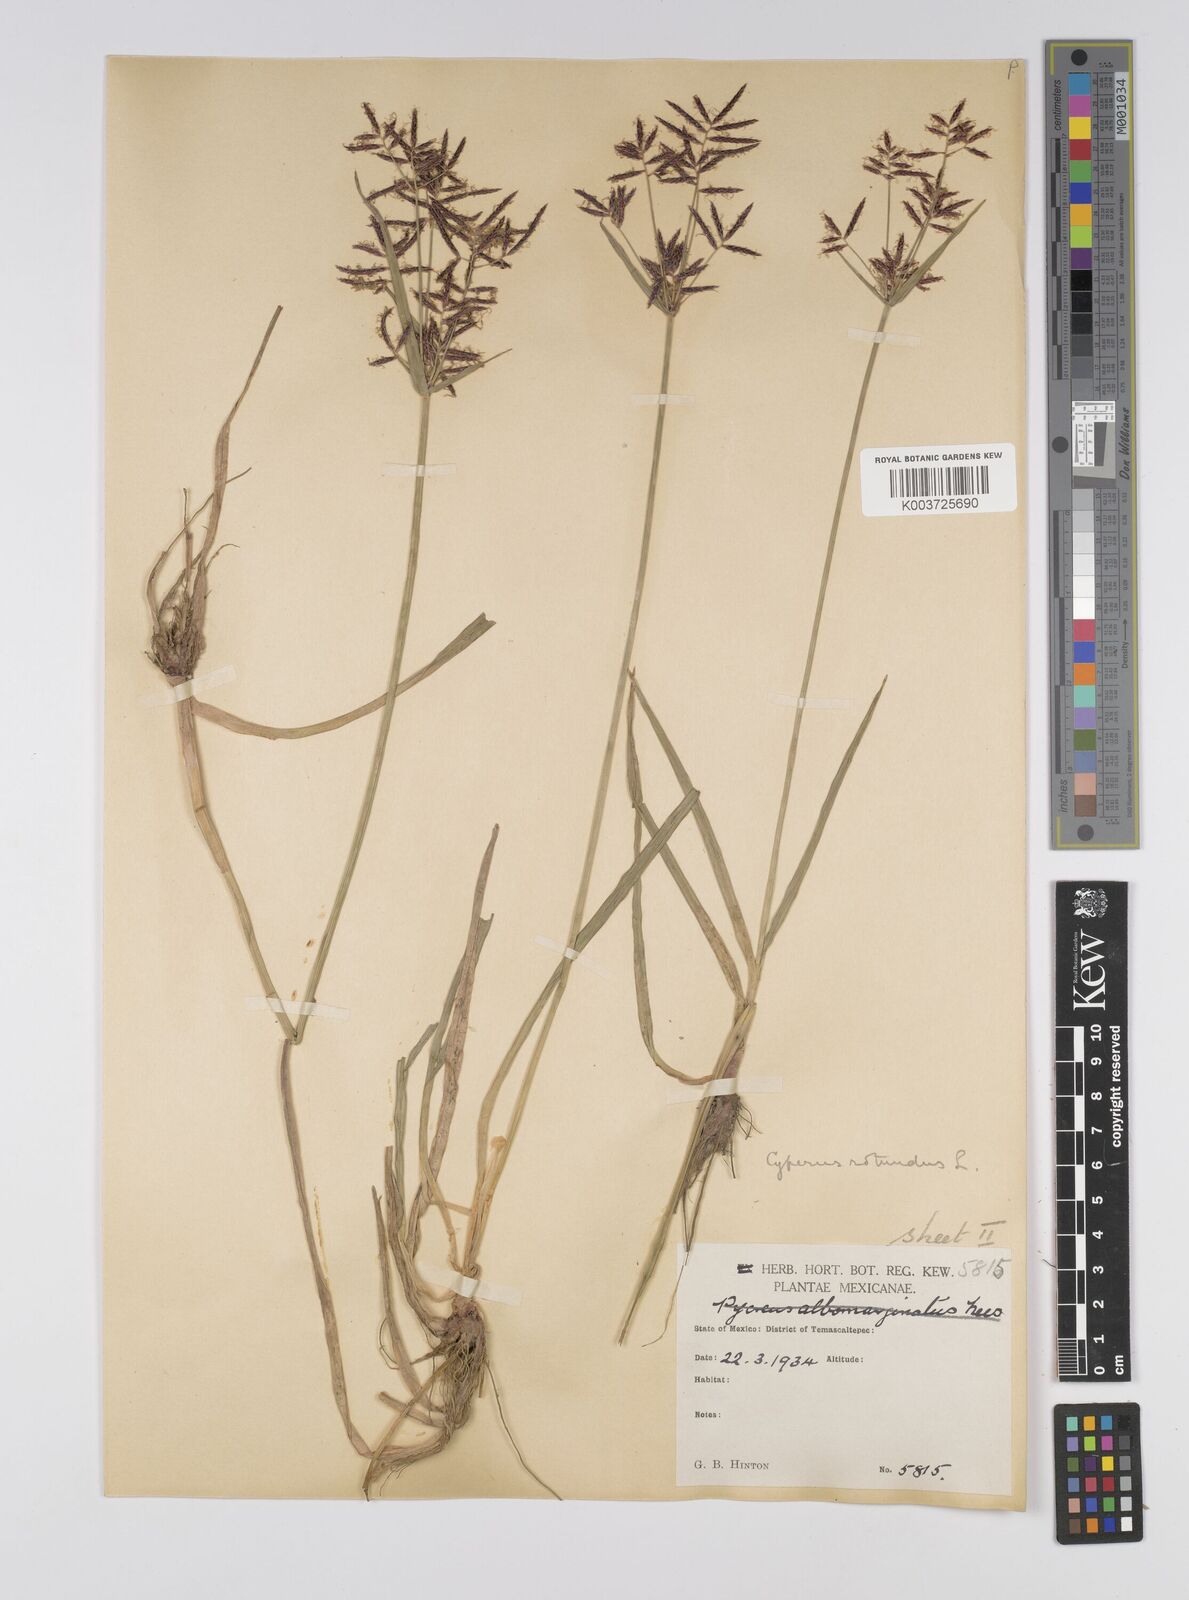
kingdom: Plantae
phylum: Tracheophyta
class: Liliopsida
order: Poales
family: Cyperaceae
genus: Cyperus
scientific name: Cyperus rotundus
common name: Nutgrass
